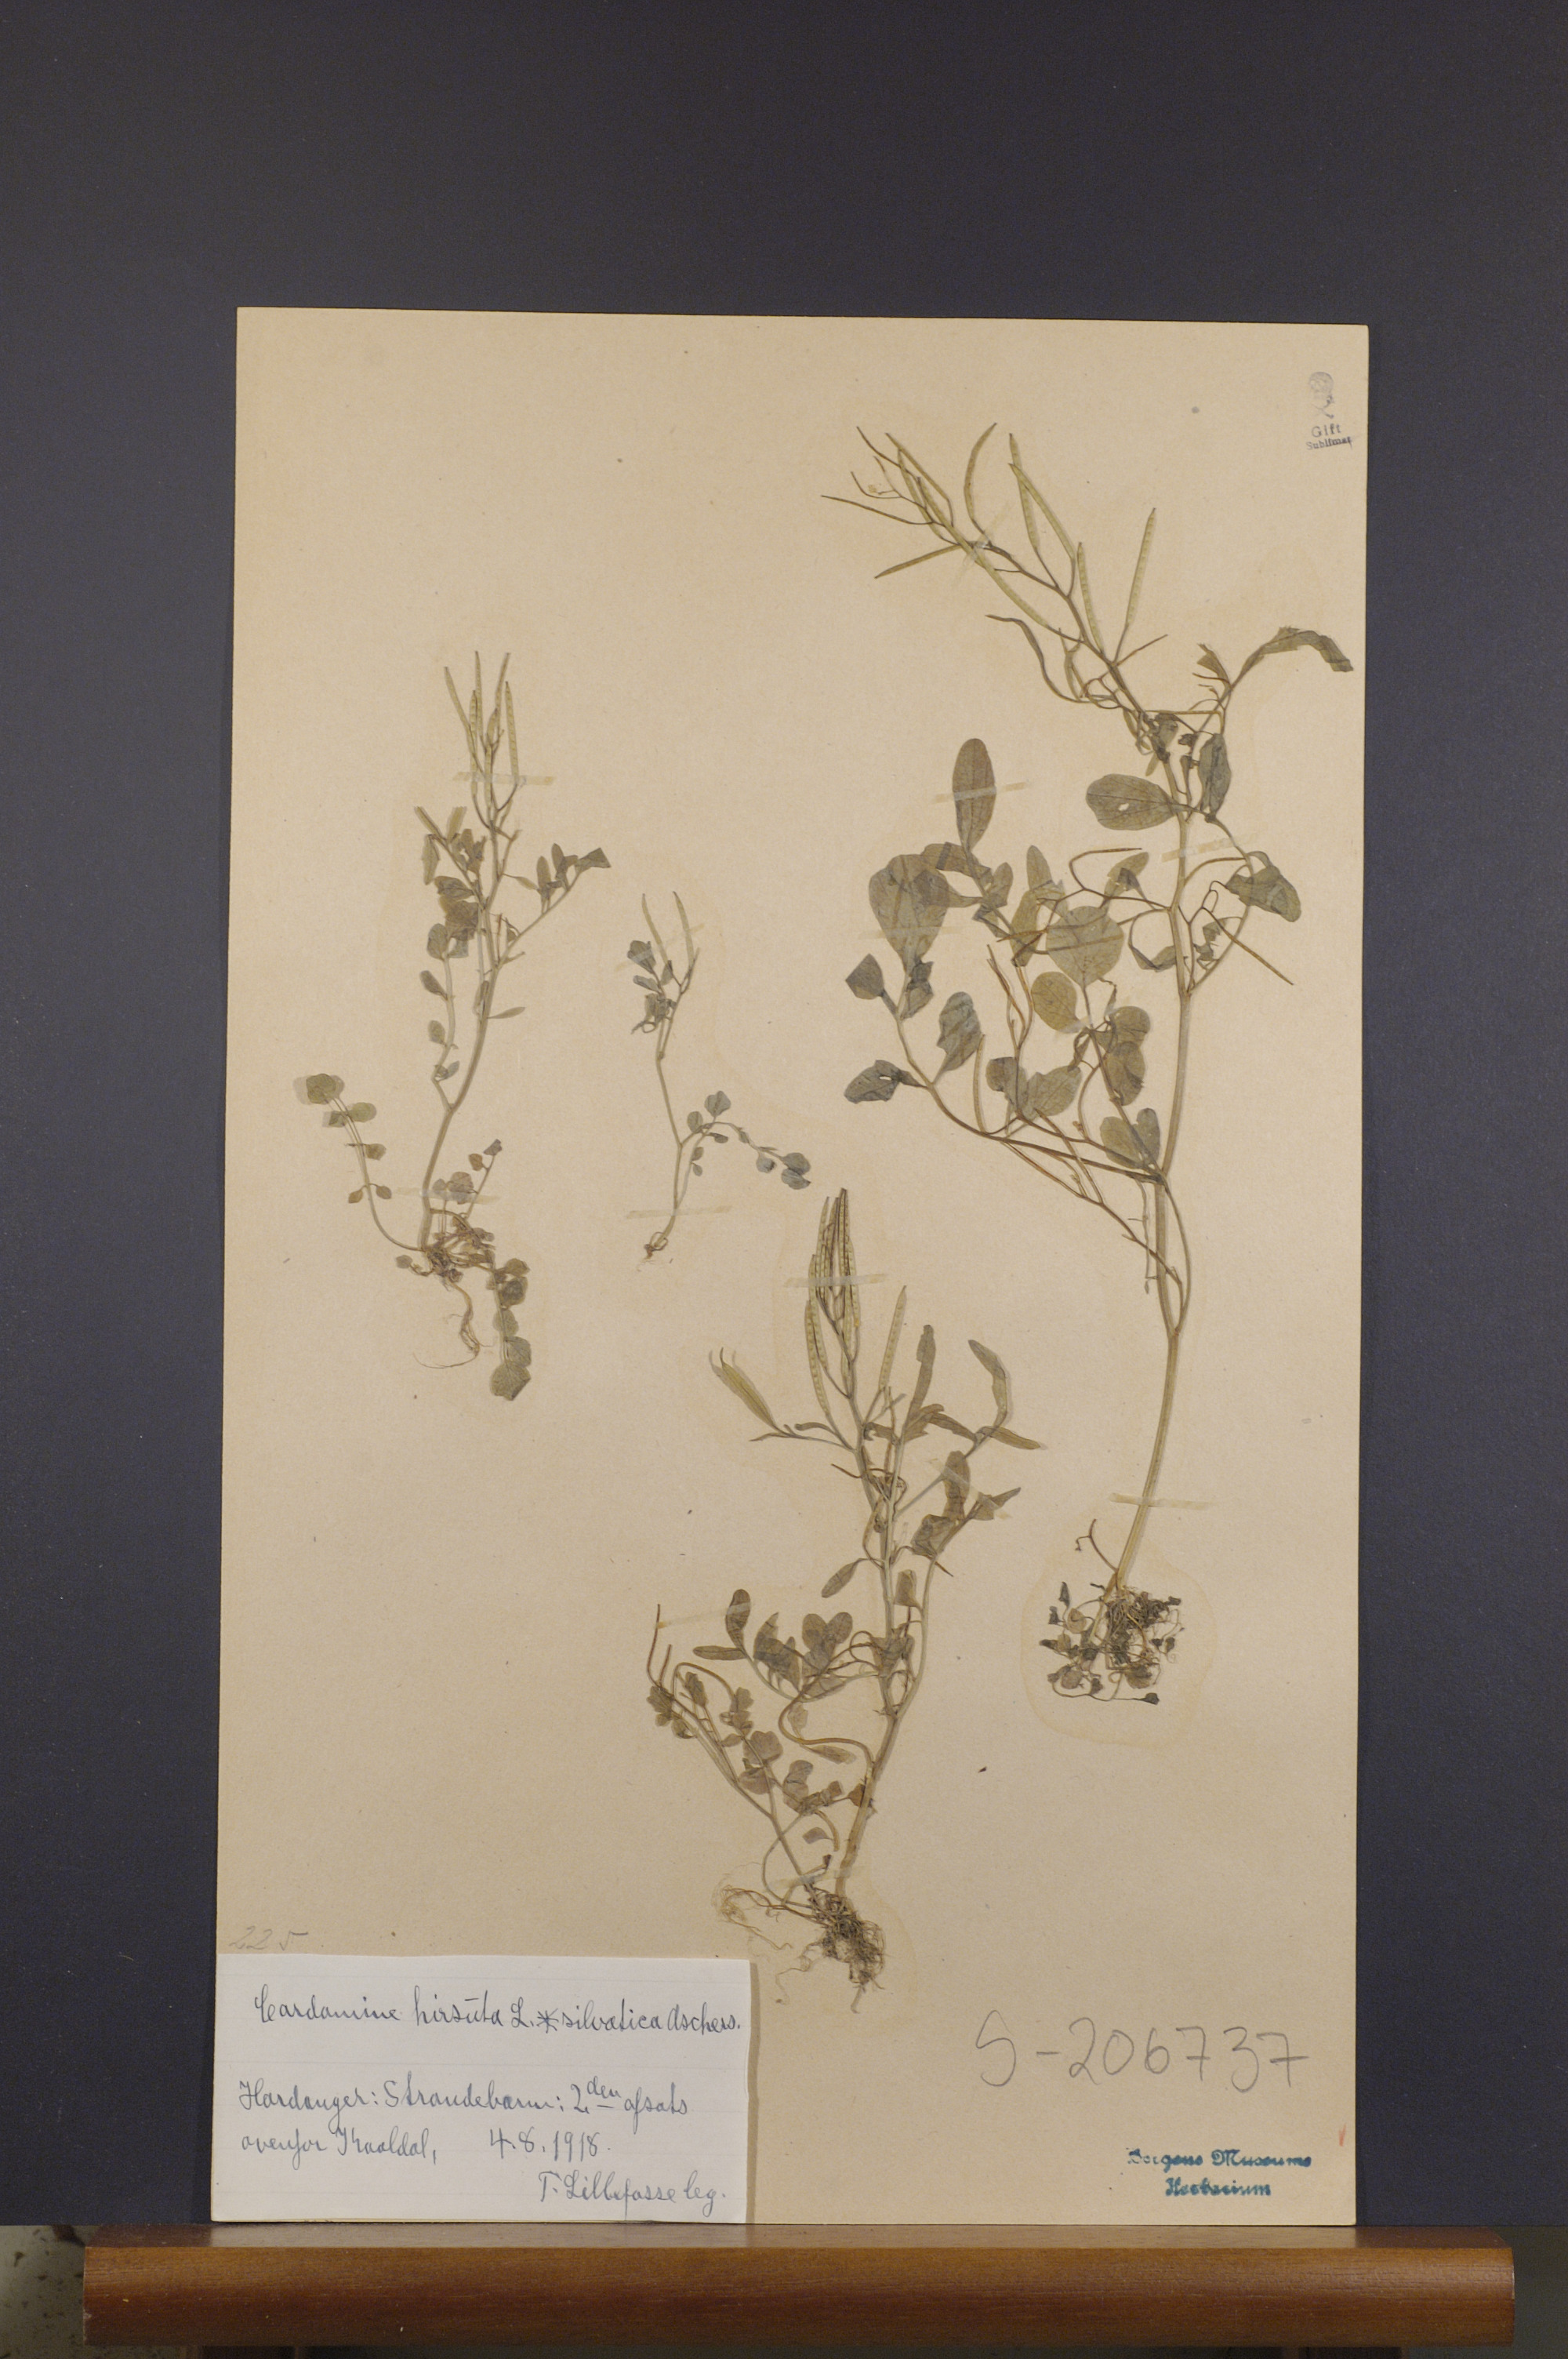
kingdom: Plantae
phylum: Tracheophyta
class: Magnoliopsida
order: Brassicales
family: Brassicaceae
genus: Cardamine
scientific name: Cardamine flexuosa
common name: Woodland bittercress
